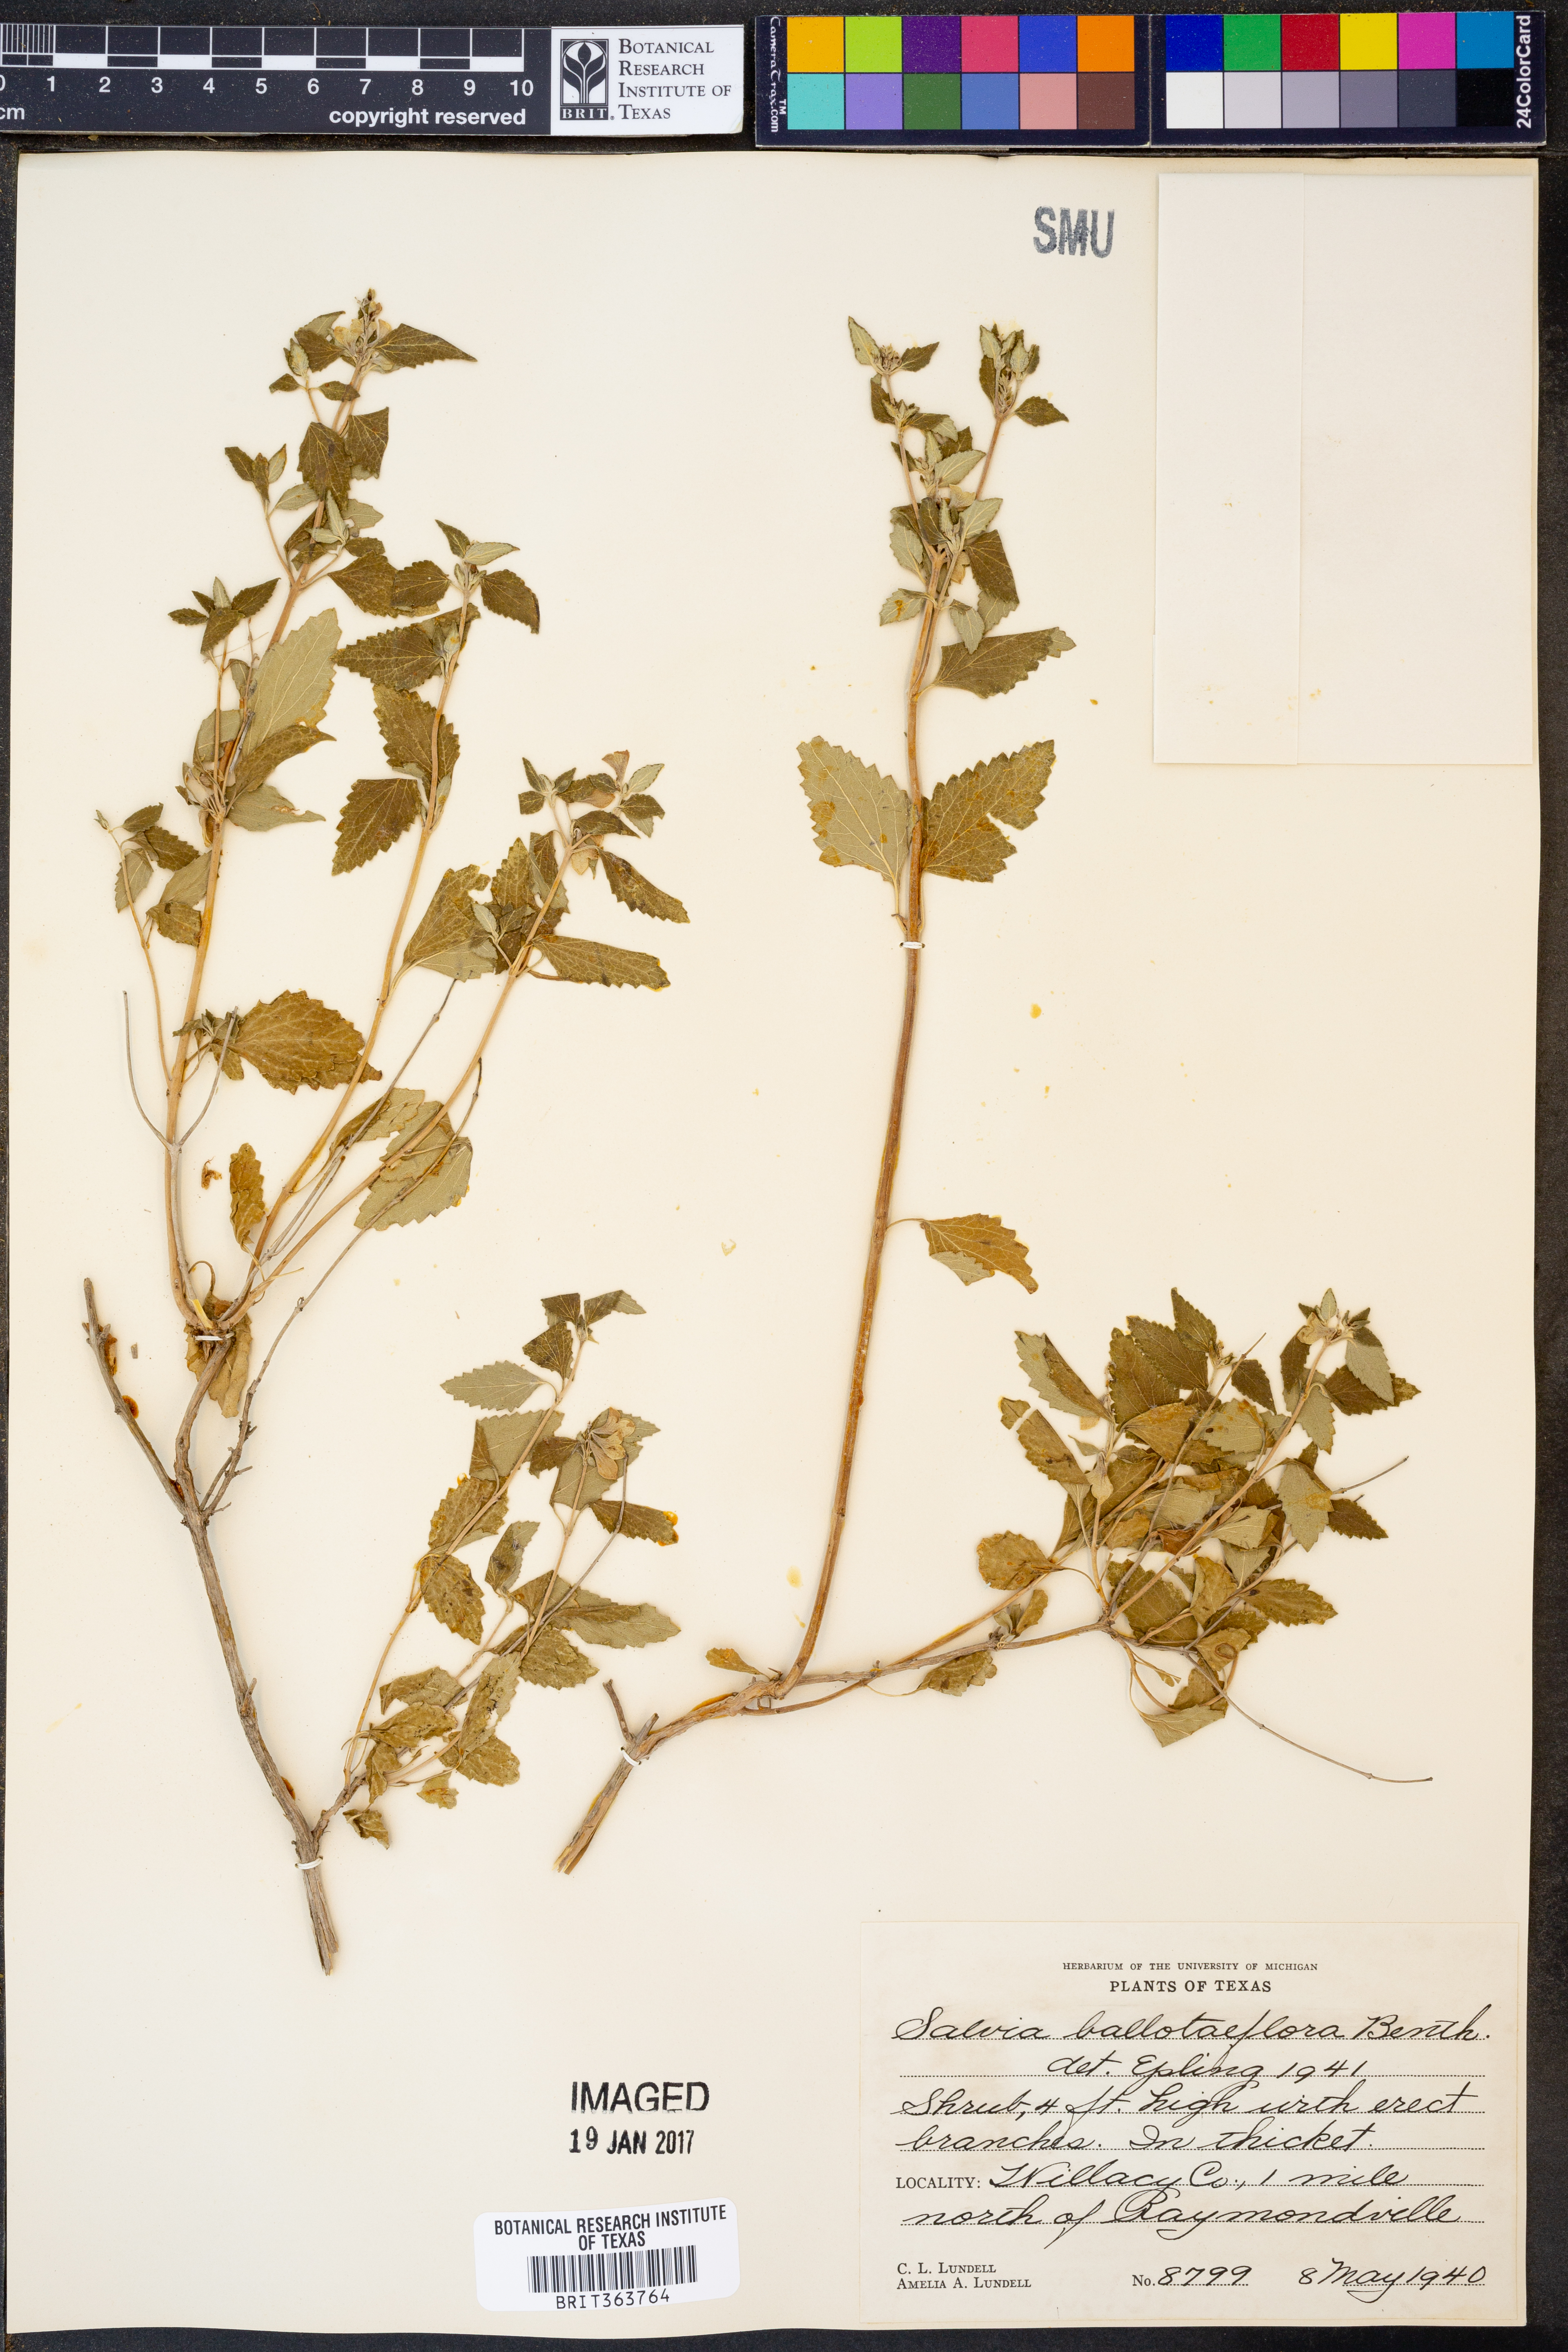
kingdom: Plantae
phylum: Tracheophyta
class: Magnoliopsida
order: Lamiales
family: Lamiaceae
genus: Salvia
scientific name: Salvia ballotiflora
